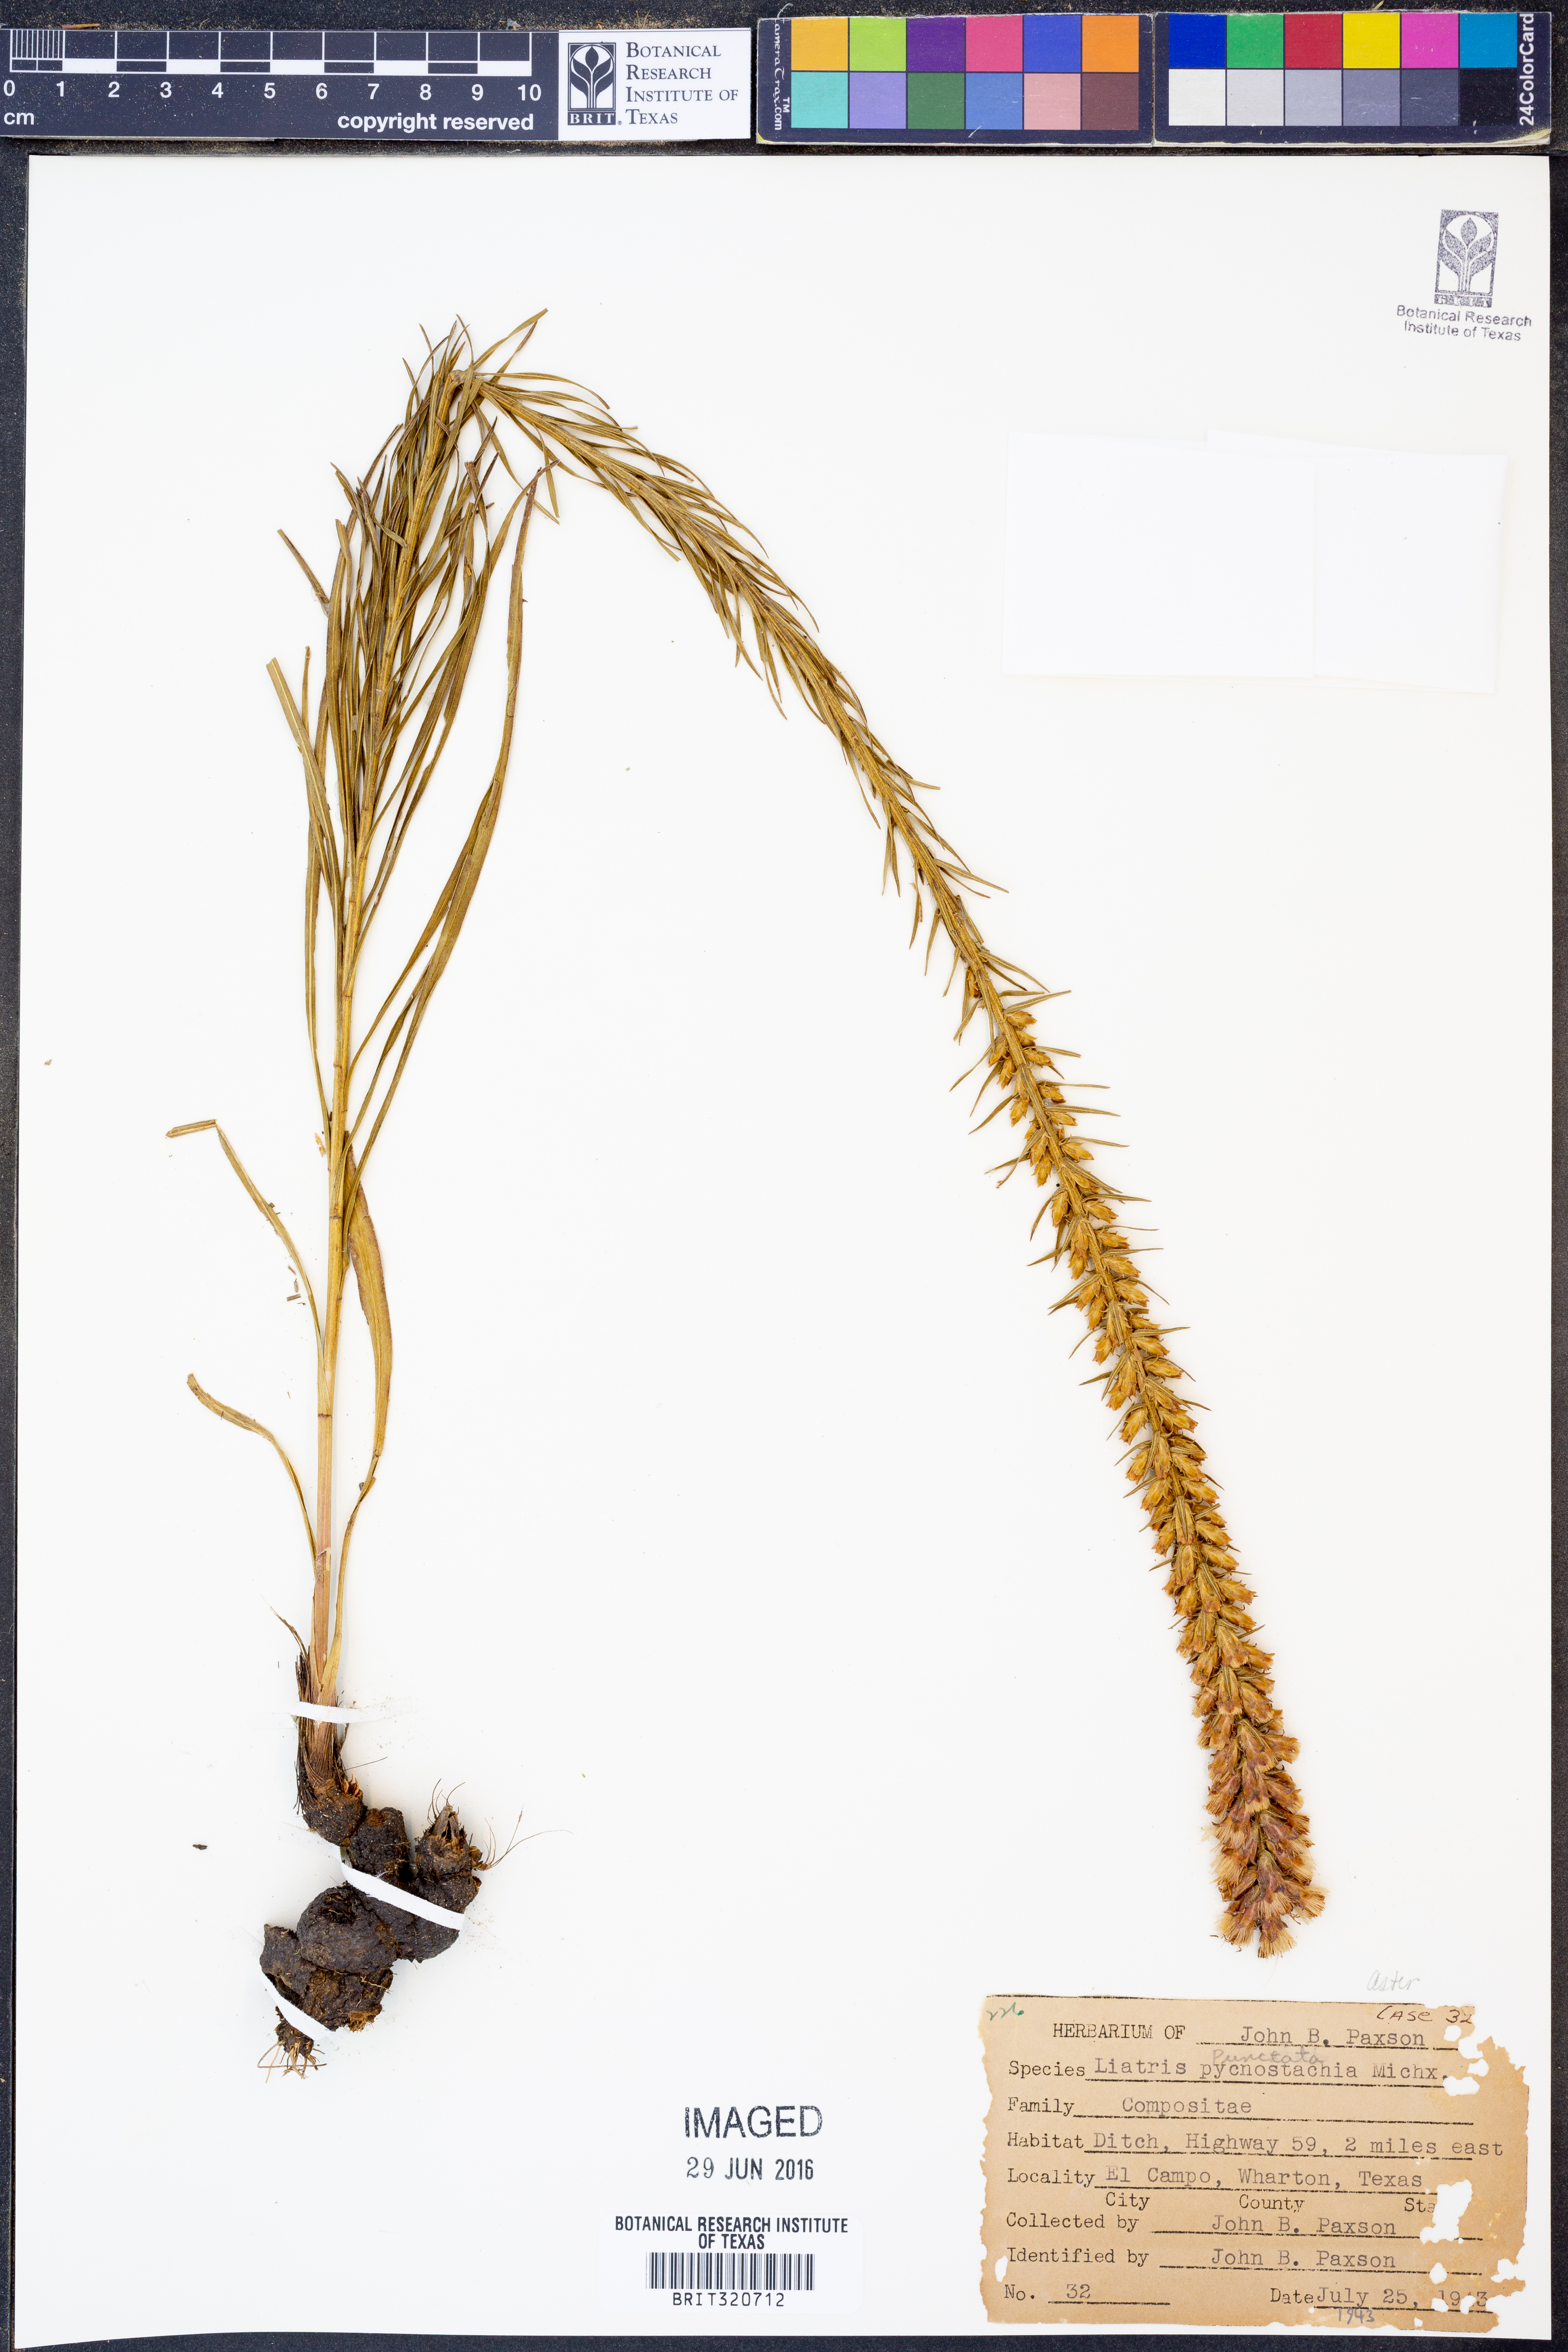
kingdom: Plantae
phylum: Tracheophyta
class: Magnoliopsida
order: Asterales
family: Asteraceae
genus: Liatris
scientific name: Liatris pycnostachya
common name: Cattail gayfeather
